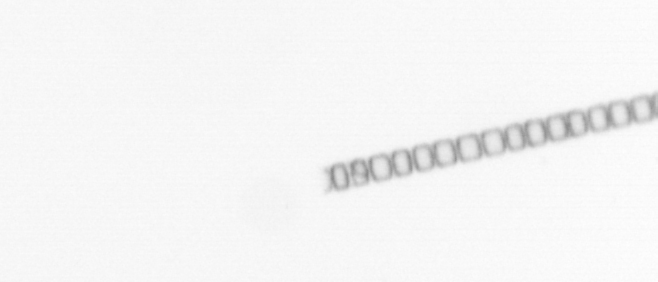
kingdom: Chromista
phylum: Ochrophyta
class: Bacillariophyceae
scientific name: Bacillariophyceae
